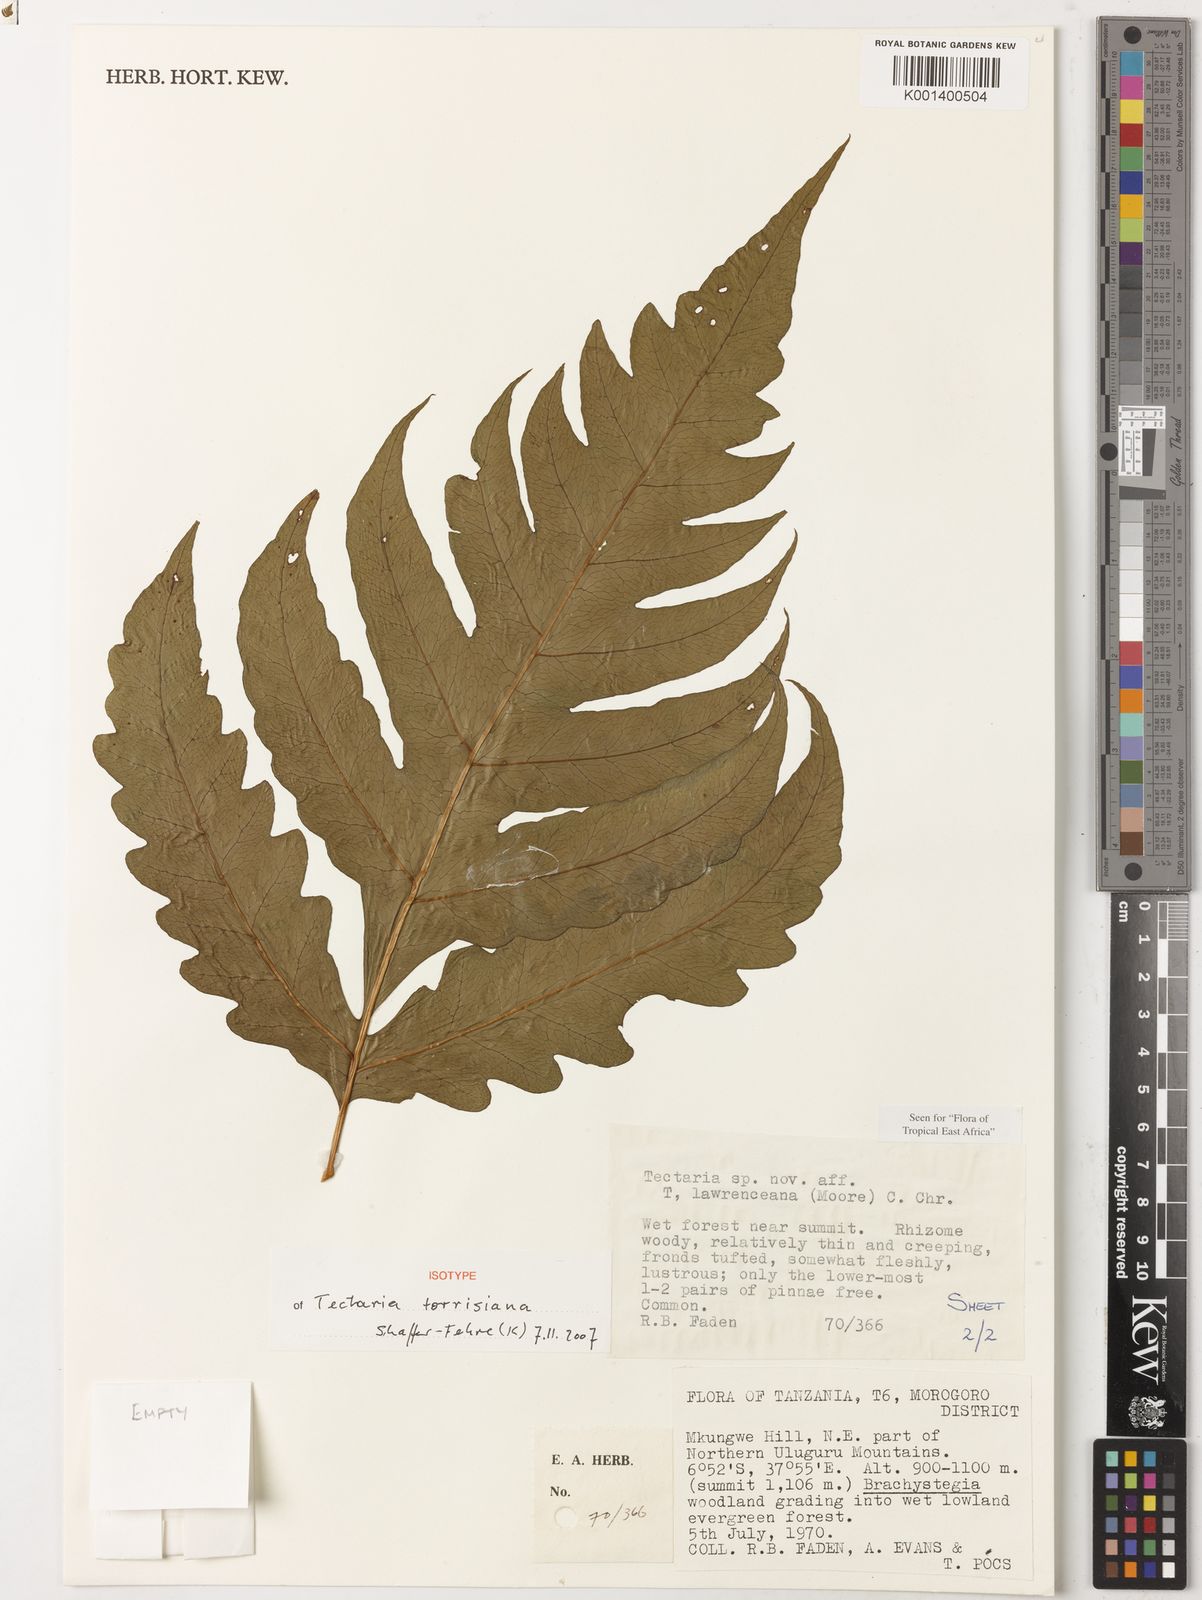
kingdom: Plantae
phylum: Tracheophyta
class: Polypodiopsida
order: Polypodiales
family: Tectariaceae
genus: Tectaria
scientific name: Tectaria torrisiana
